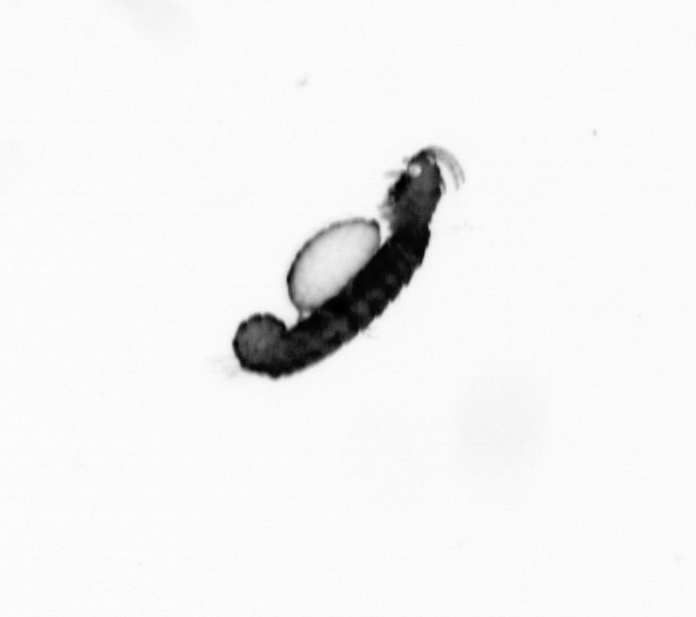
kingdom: Animalia
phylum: Annelida
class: Polychaeta
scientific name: Polychaeta
